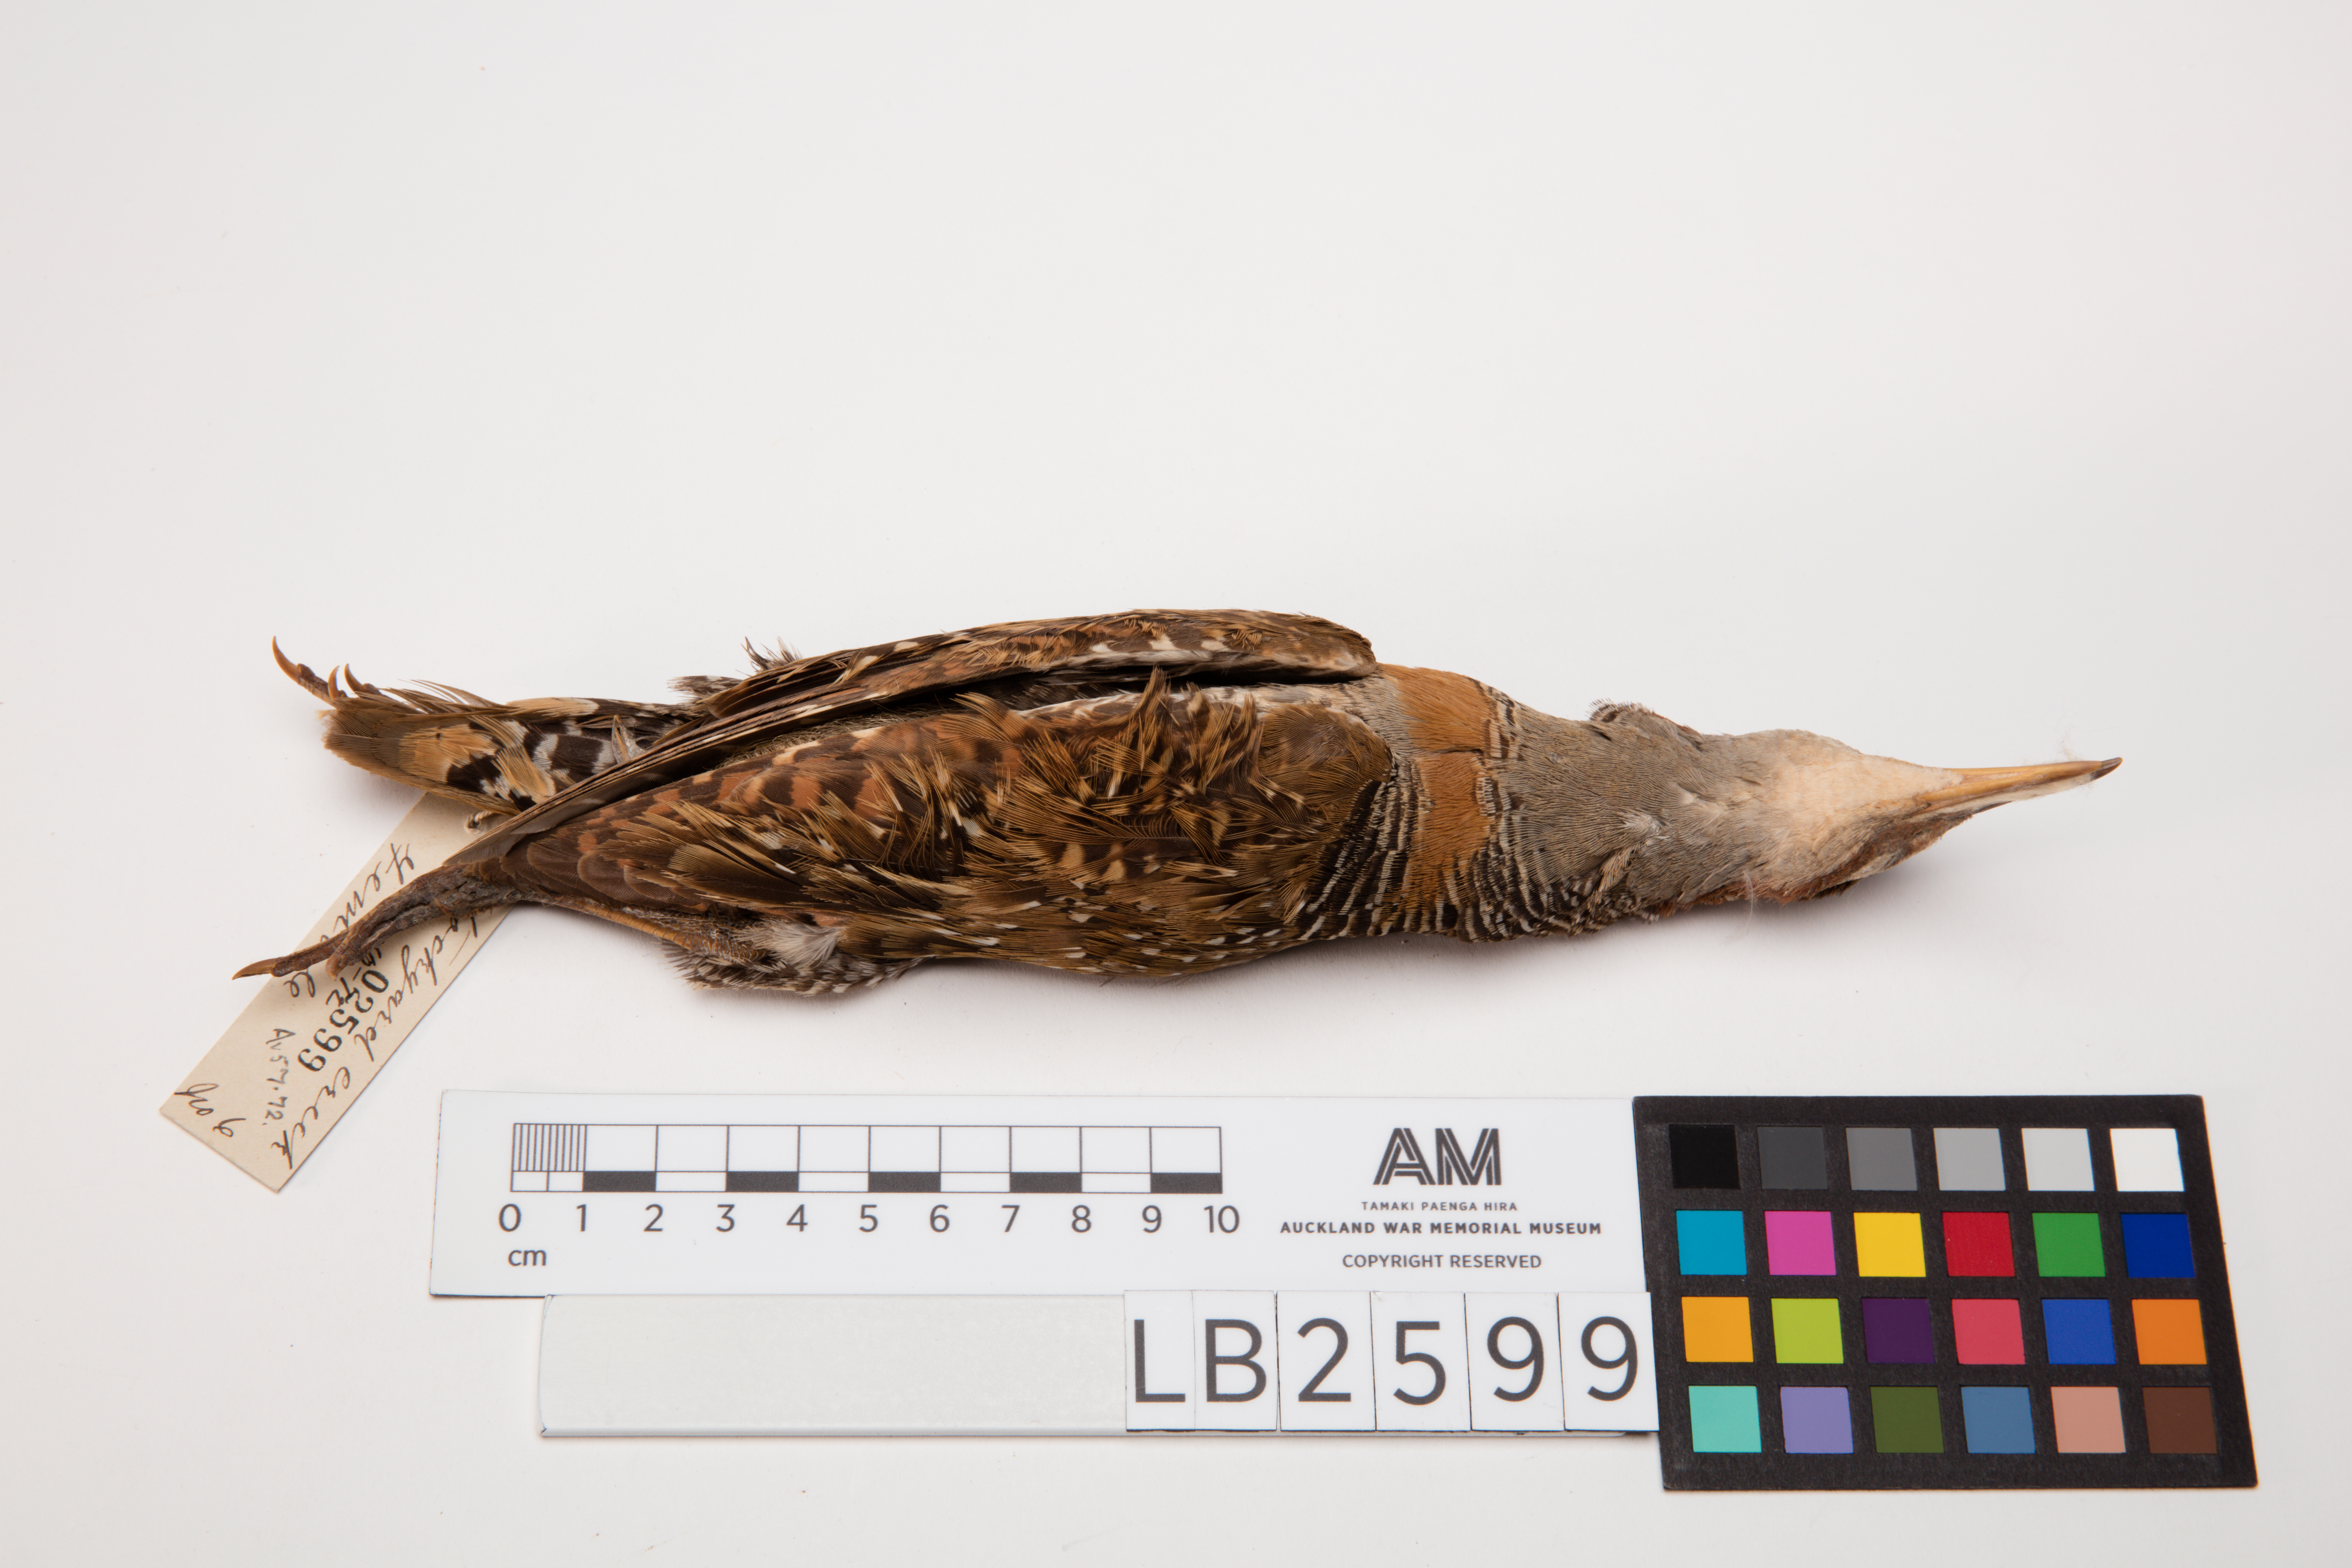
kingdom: Animalia
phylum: Chordata
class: Aves
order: Gruiformes
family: Rallidae
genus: Gallirallus
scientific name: Gallirallus philippensis
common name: Buff-banded rail
